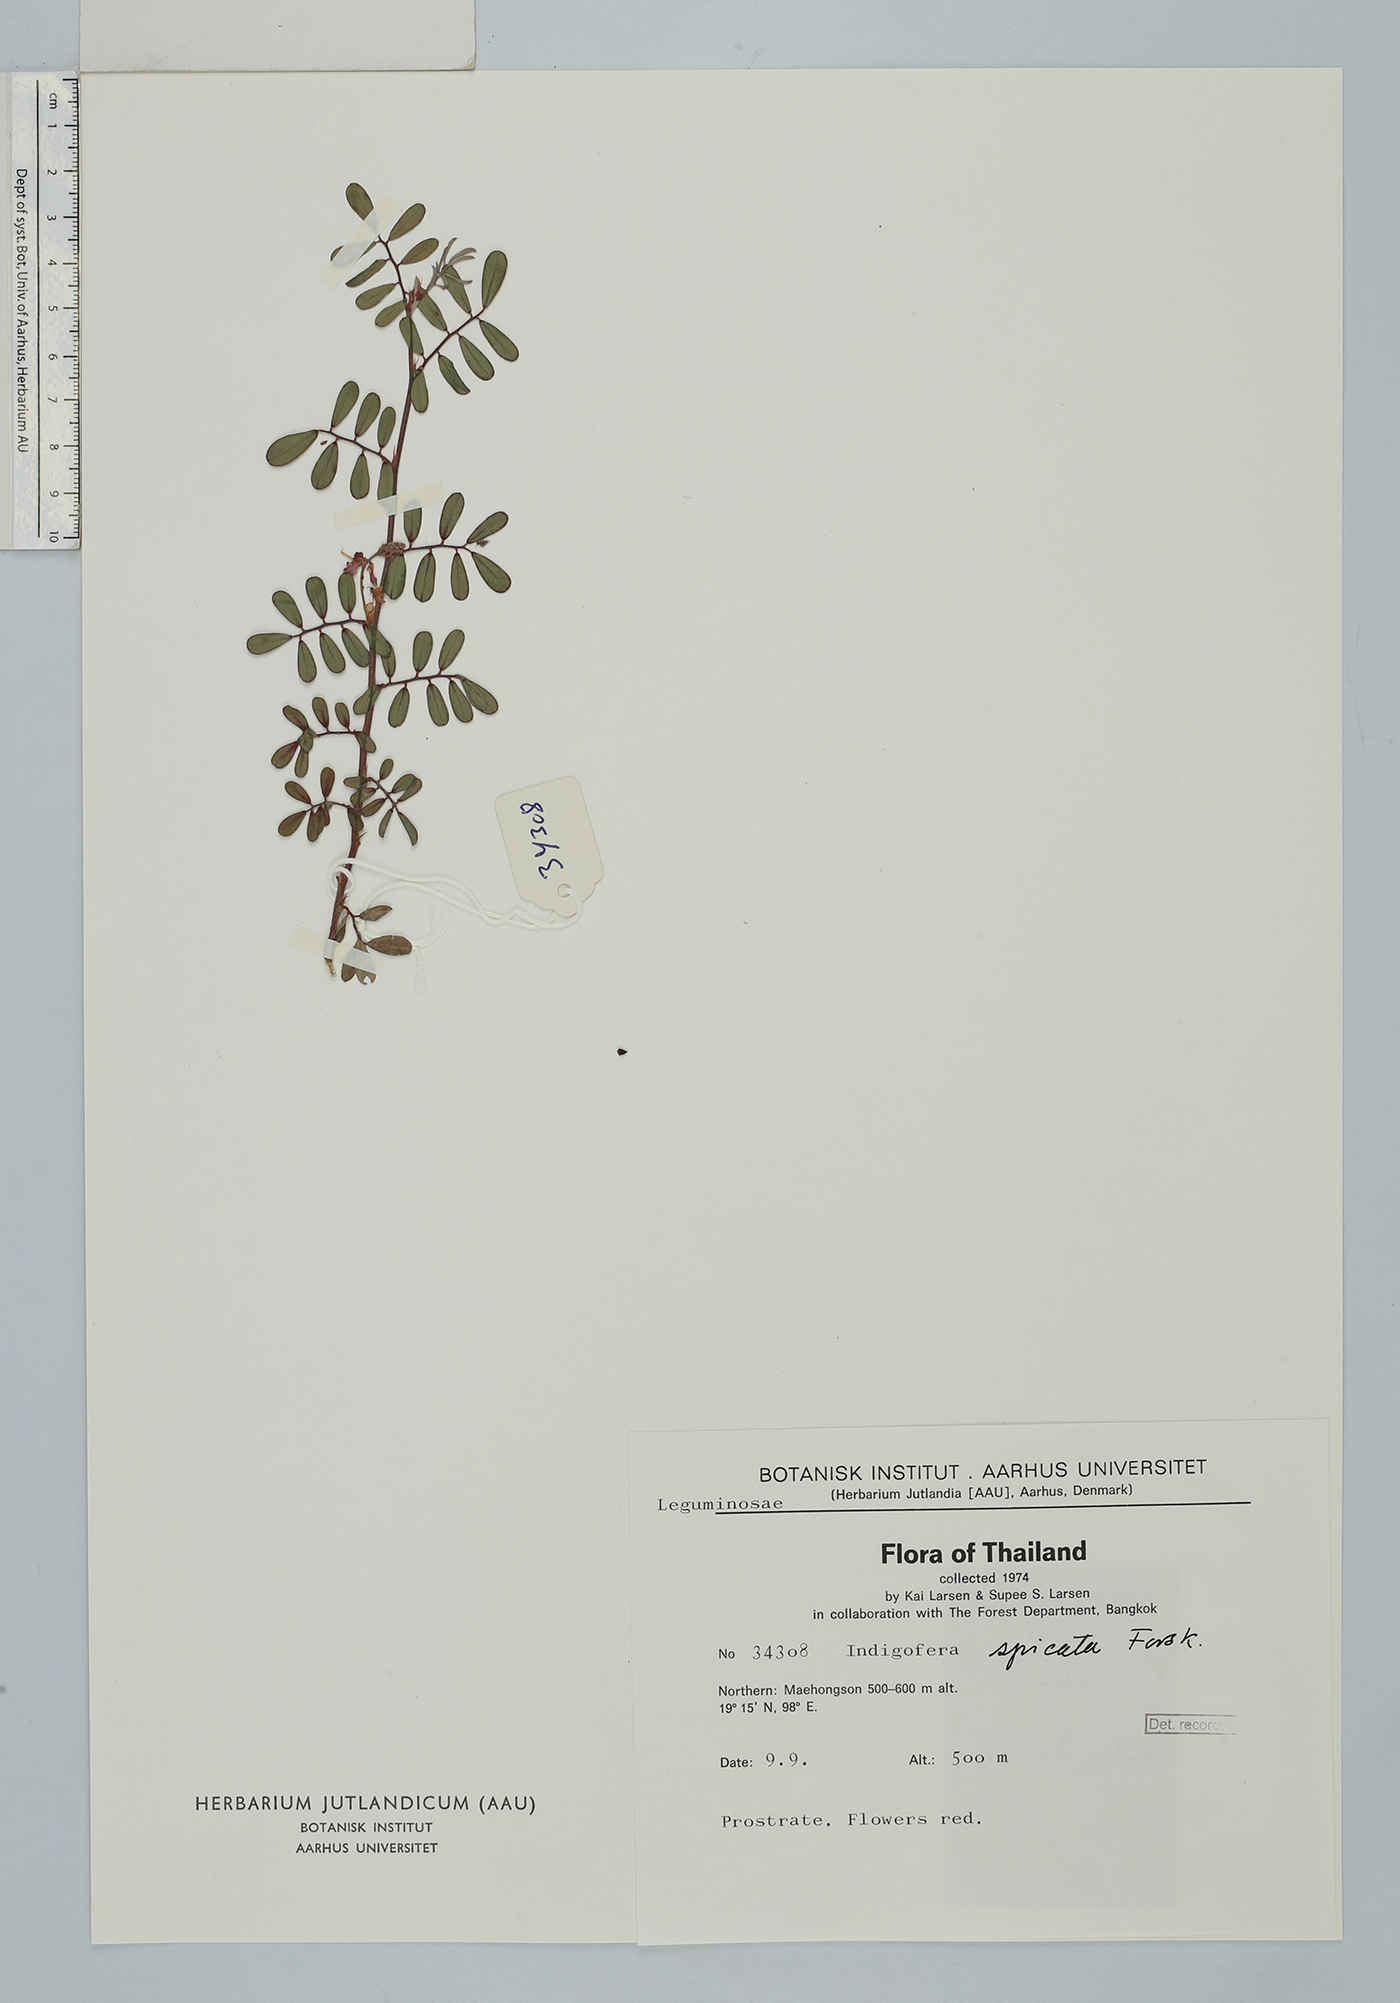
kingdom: Plantae
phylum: Tracheophyta
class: Magnoliopsida
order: Fabales
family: Fabaceae
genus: Indigofera
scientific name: Indigofera spicata
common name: Creeping indigo
